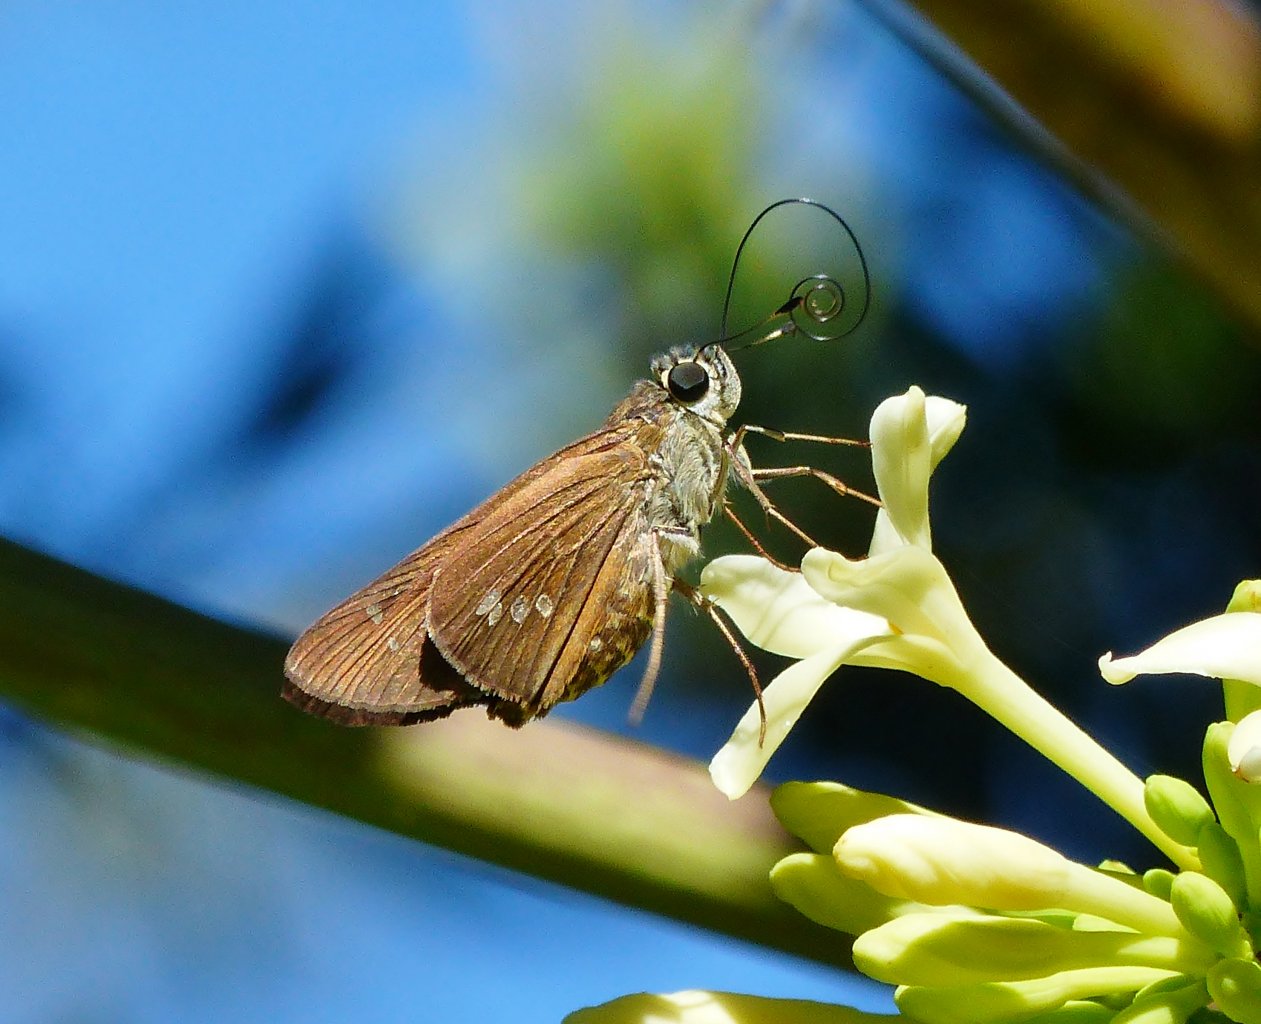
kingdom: Animalia
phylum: Arthropoda
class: Insecta
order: Lepidoptera
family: Hesperiidae
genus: Calpodes
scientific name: Calpodes ethlius
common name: Brazilian Skipper
